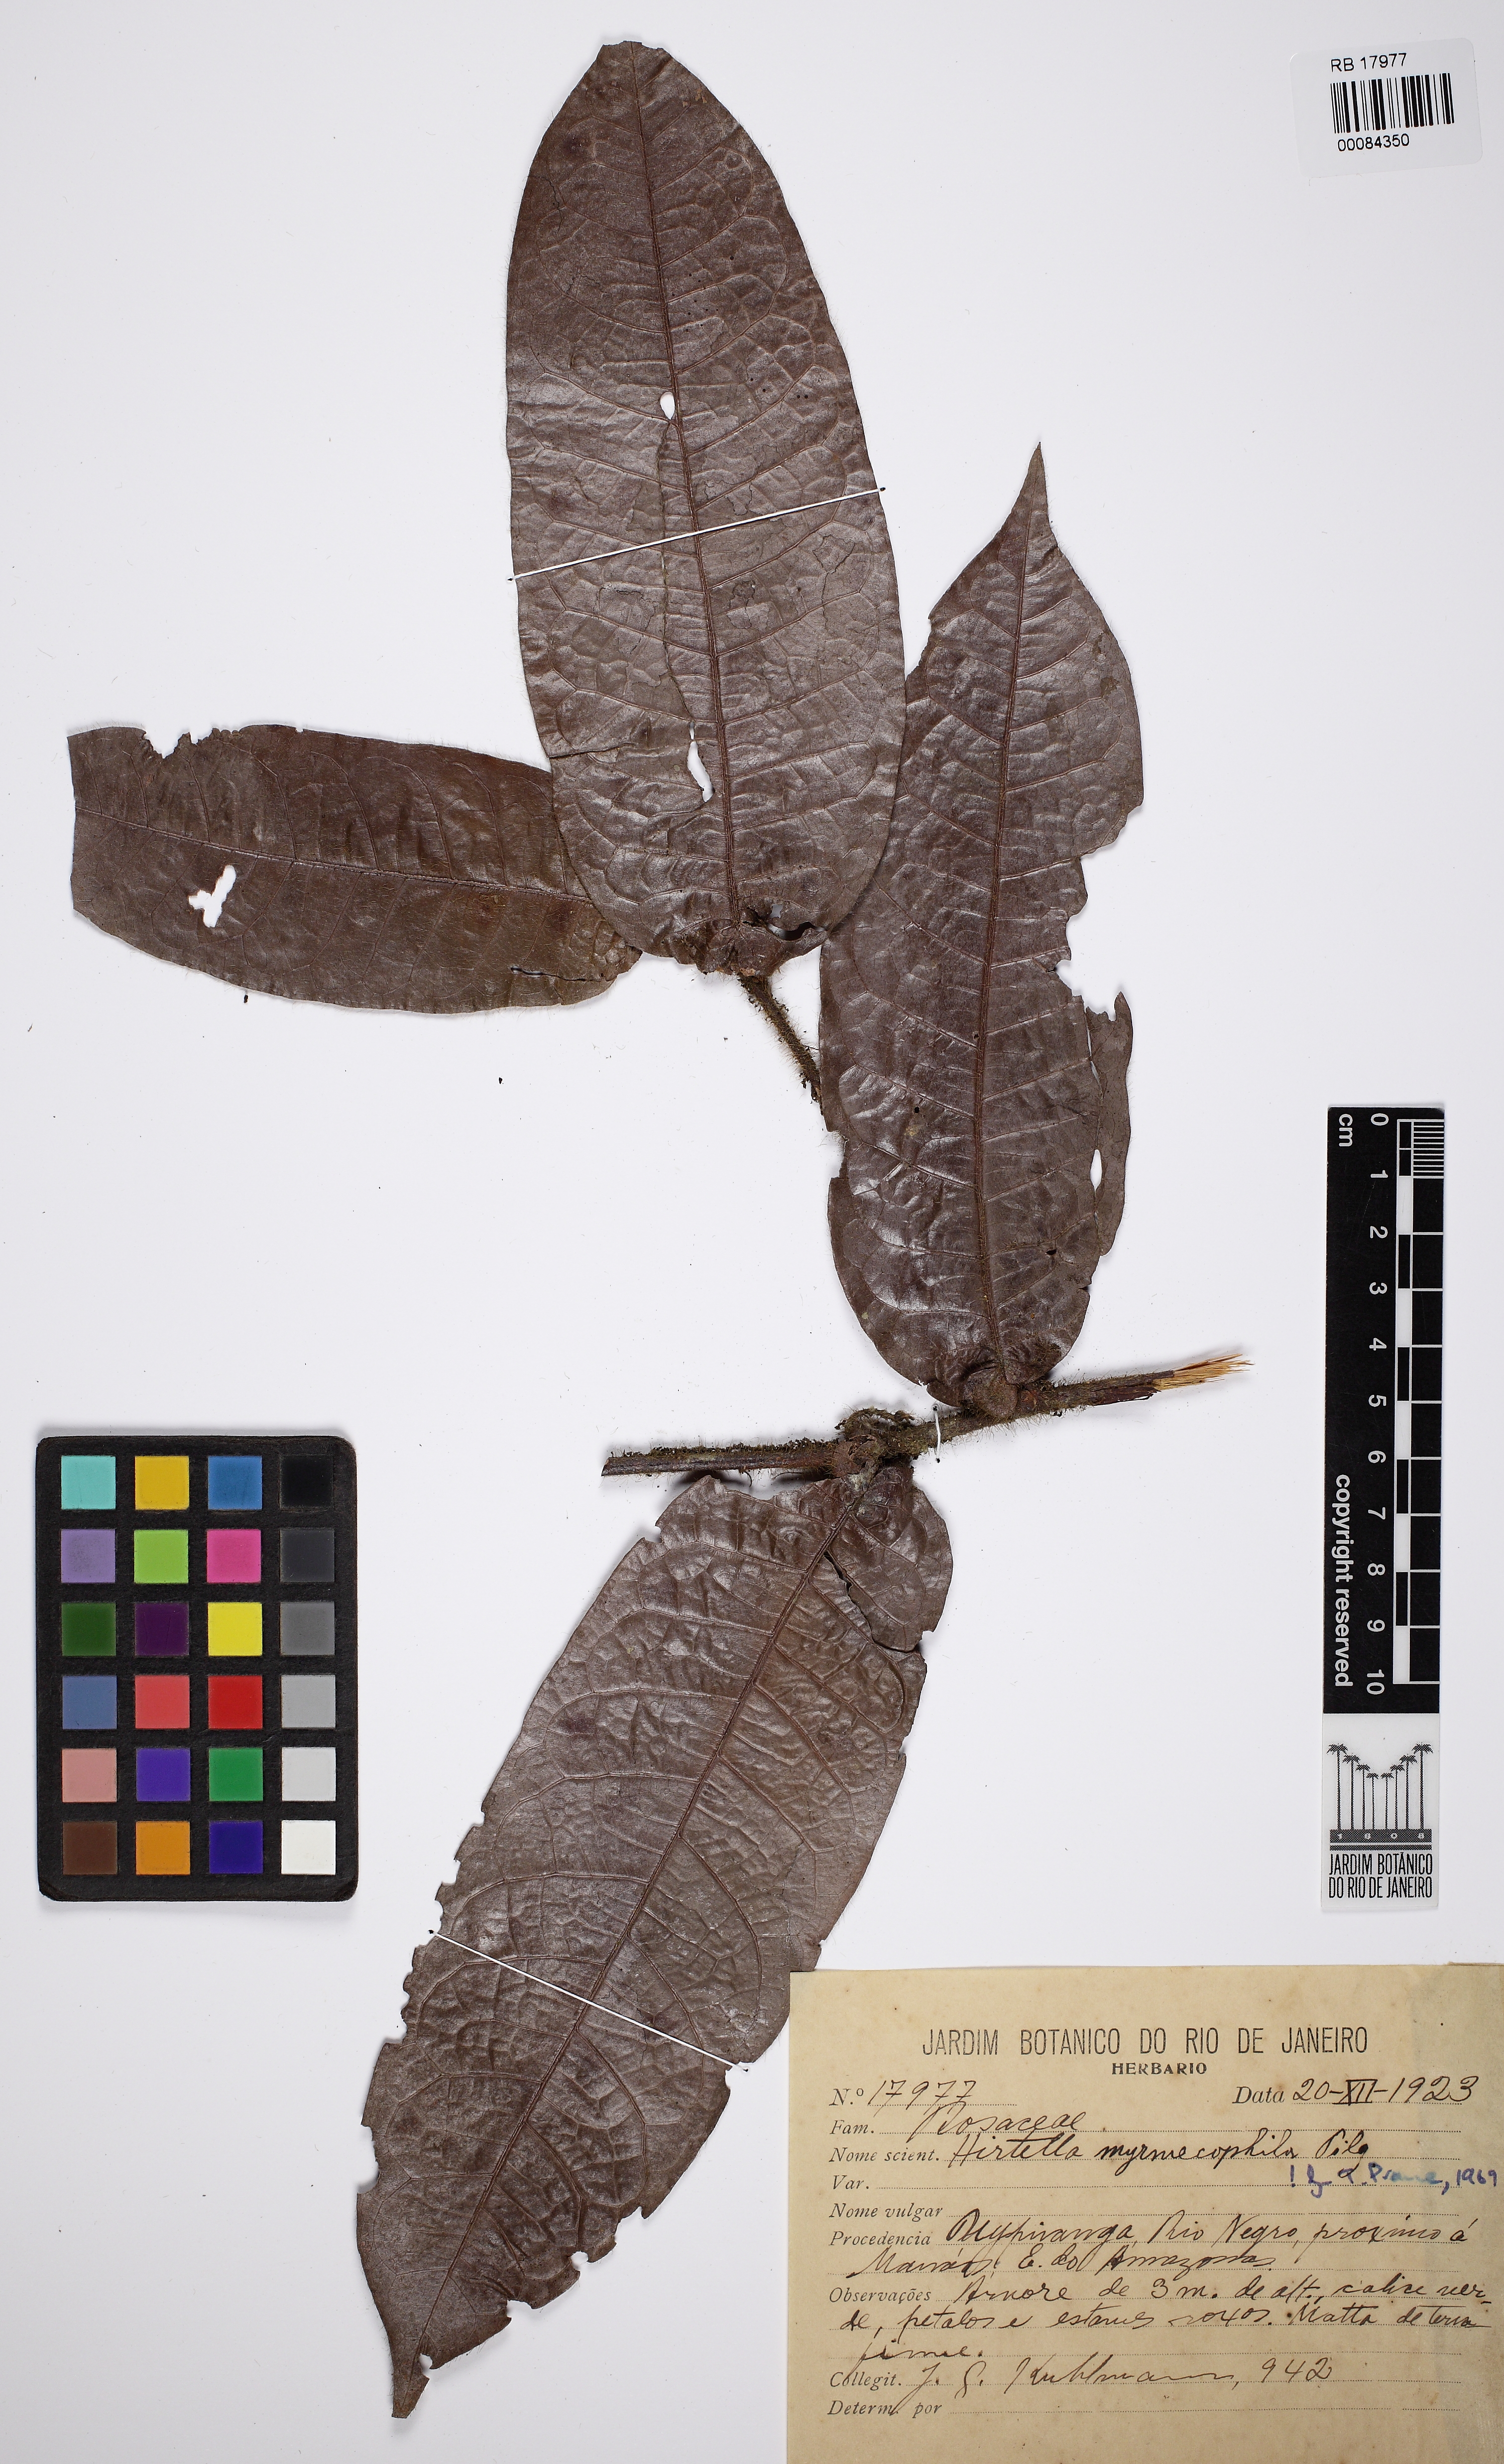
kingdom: Plantae
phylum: Tracheophyta
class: Magnoliopsida
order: Malpighiales
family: Chrysobalanaceae
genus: Hirtella
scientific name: Hirtella myrmecophila
